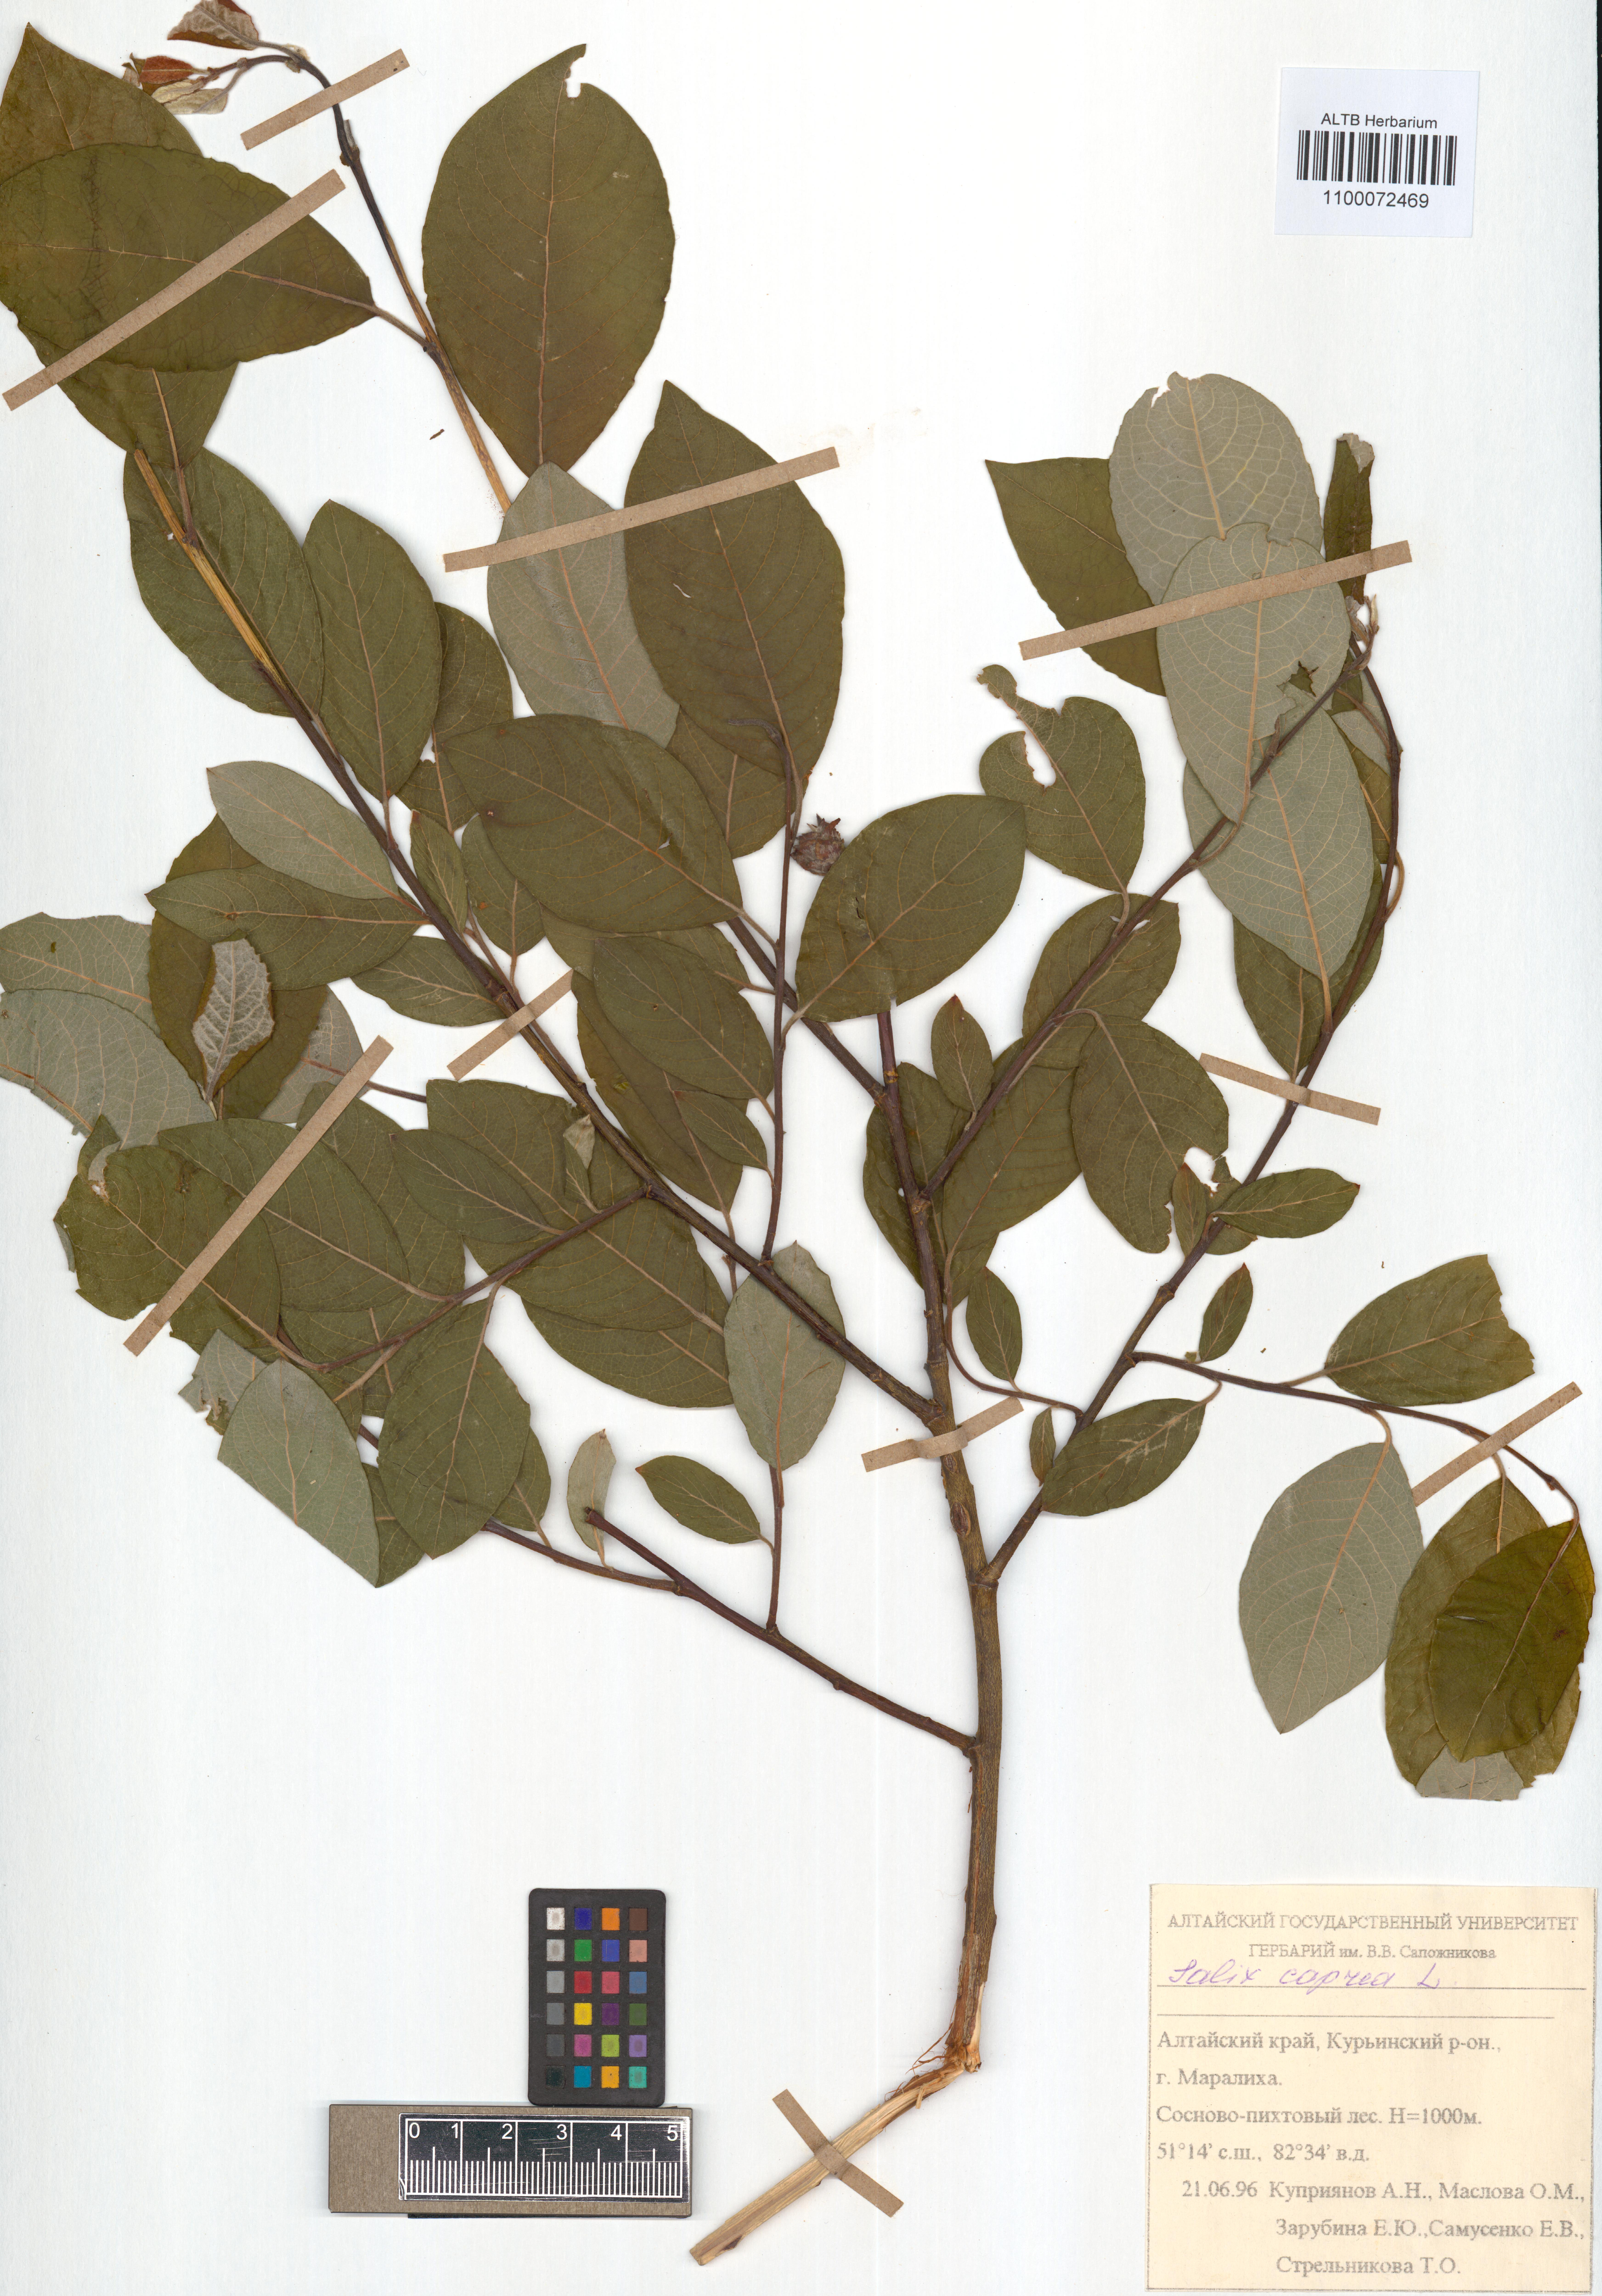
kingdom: Plantae
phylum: Tracheophyta
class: Magnoliopsida
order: Malpighiales
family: Salicaceae
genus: Salix
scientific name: Salix caprea
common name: Goat willow
